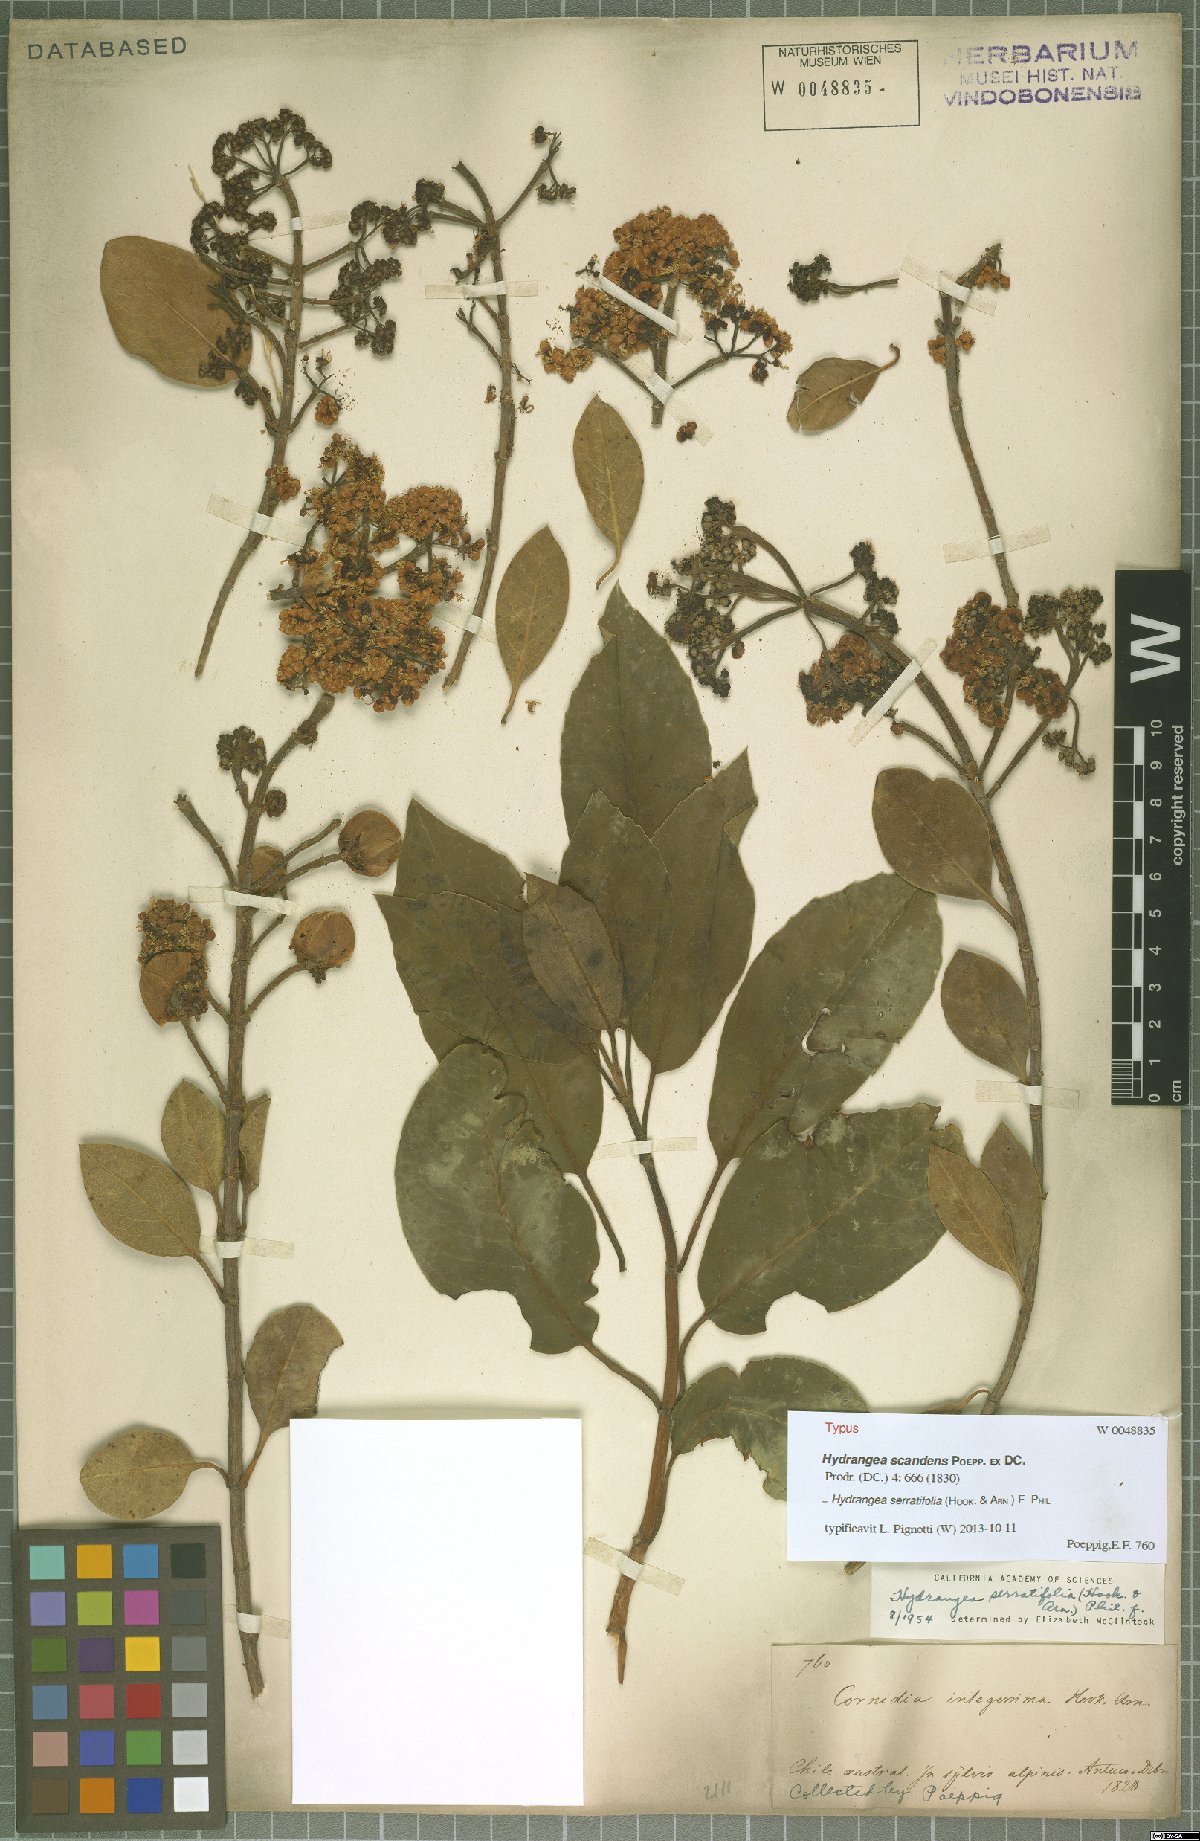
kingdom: Plantae
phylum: Tracheophyta
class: Magnoliopsida
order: Cornales
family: Hydrangeaceae
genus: Hydrangea
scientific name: Hydrangea serratifolia
